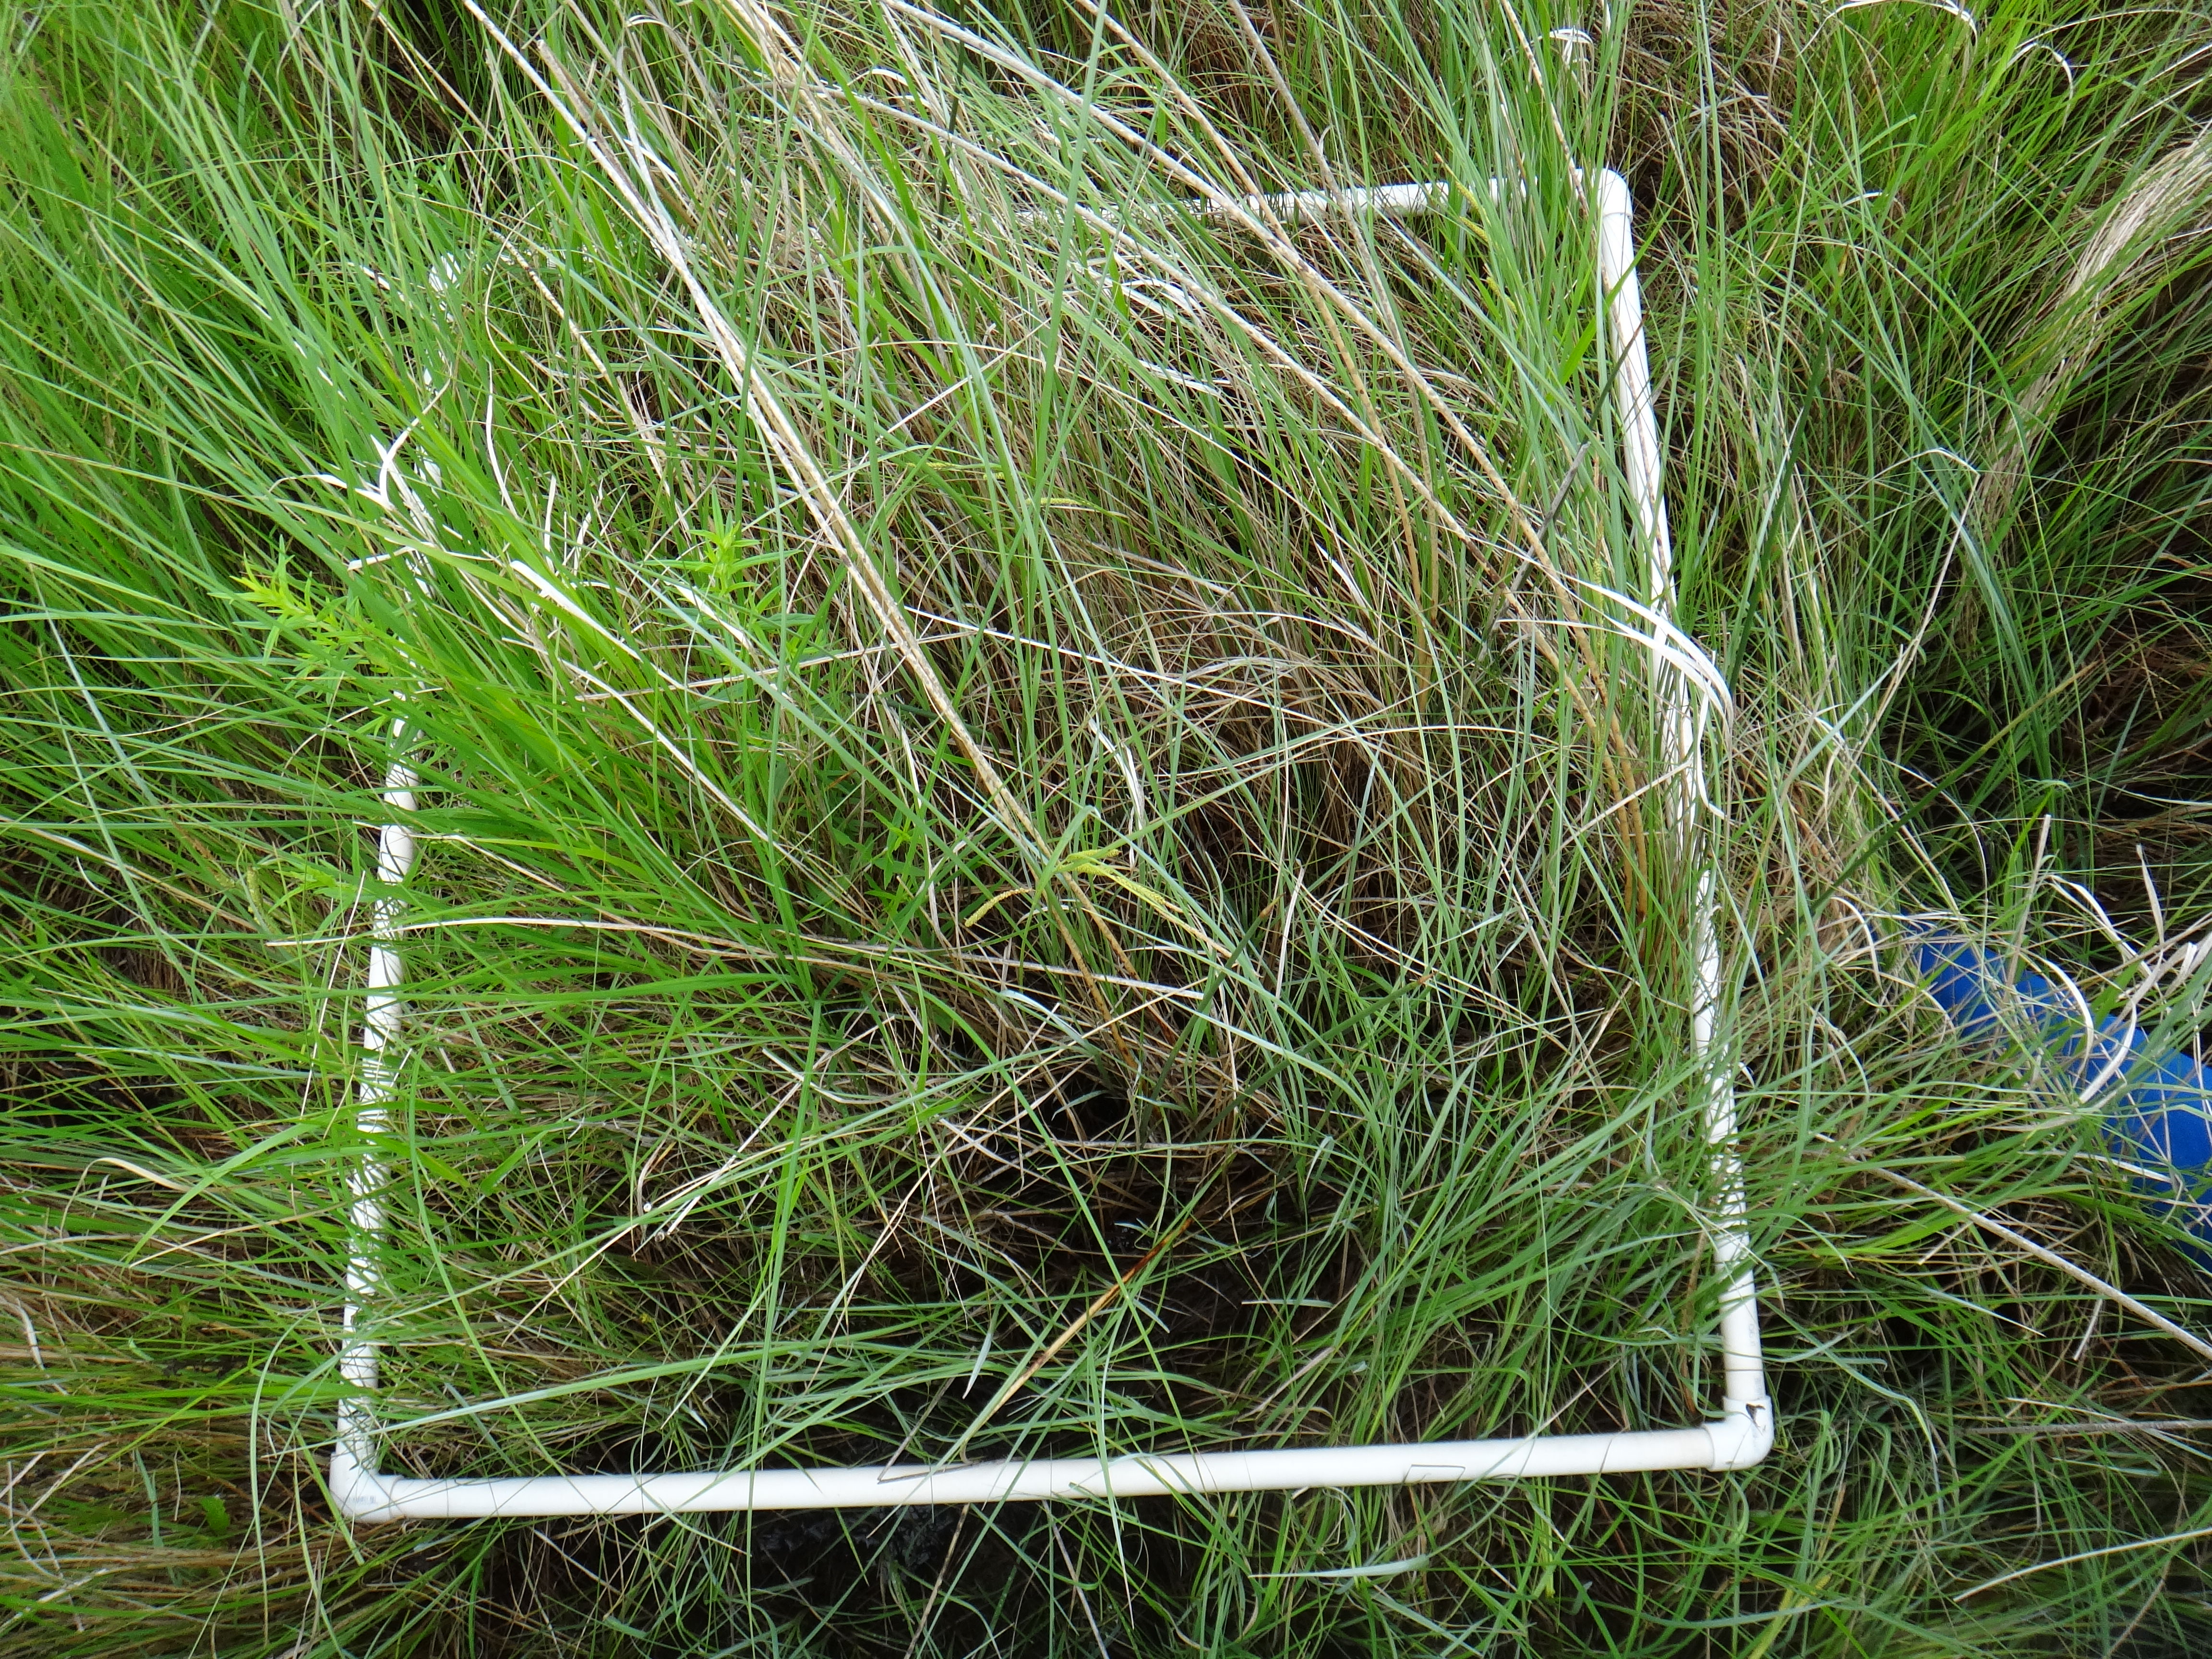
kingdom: Plantae
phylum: Tracheophyta
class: Magnoliopsida
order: Fabales
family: Fabaceae
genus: Lathyrus
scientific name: Lathyrus palustris
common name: Marsh pea
